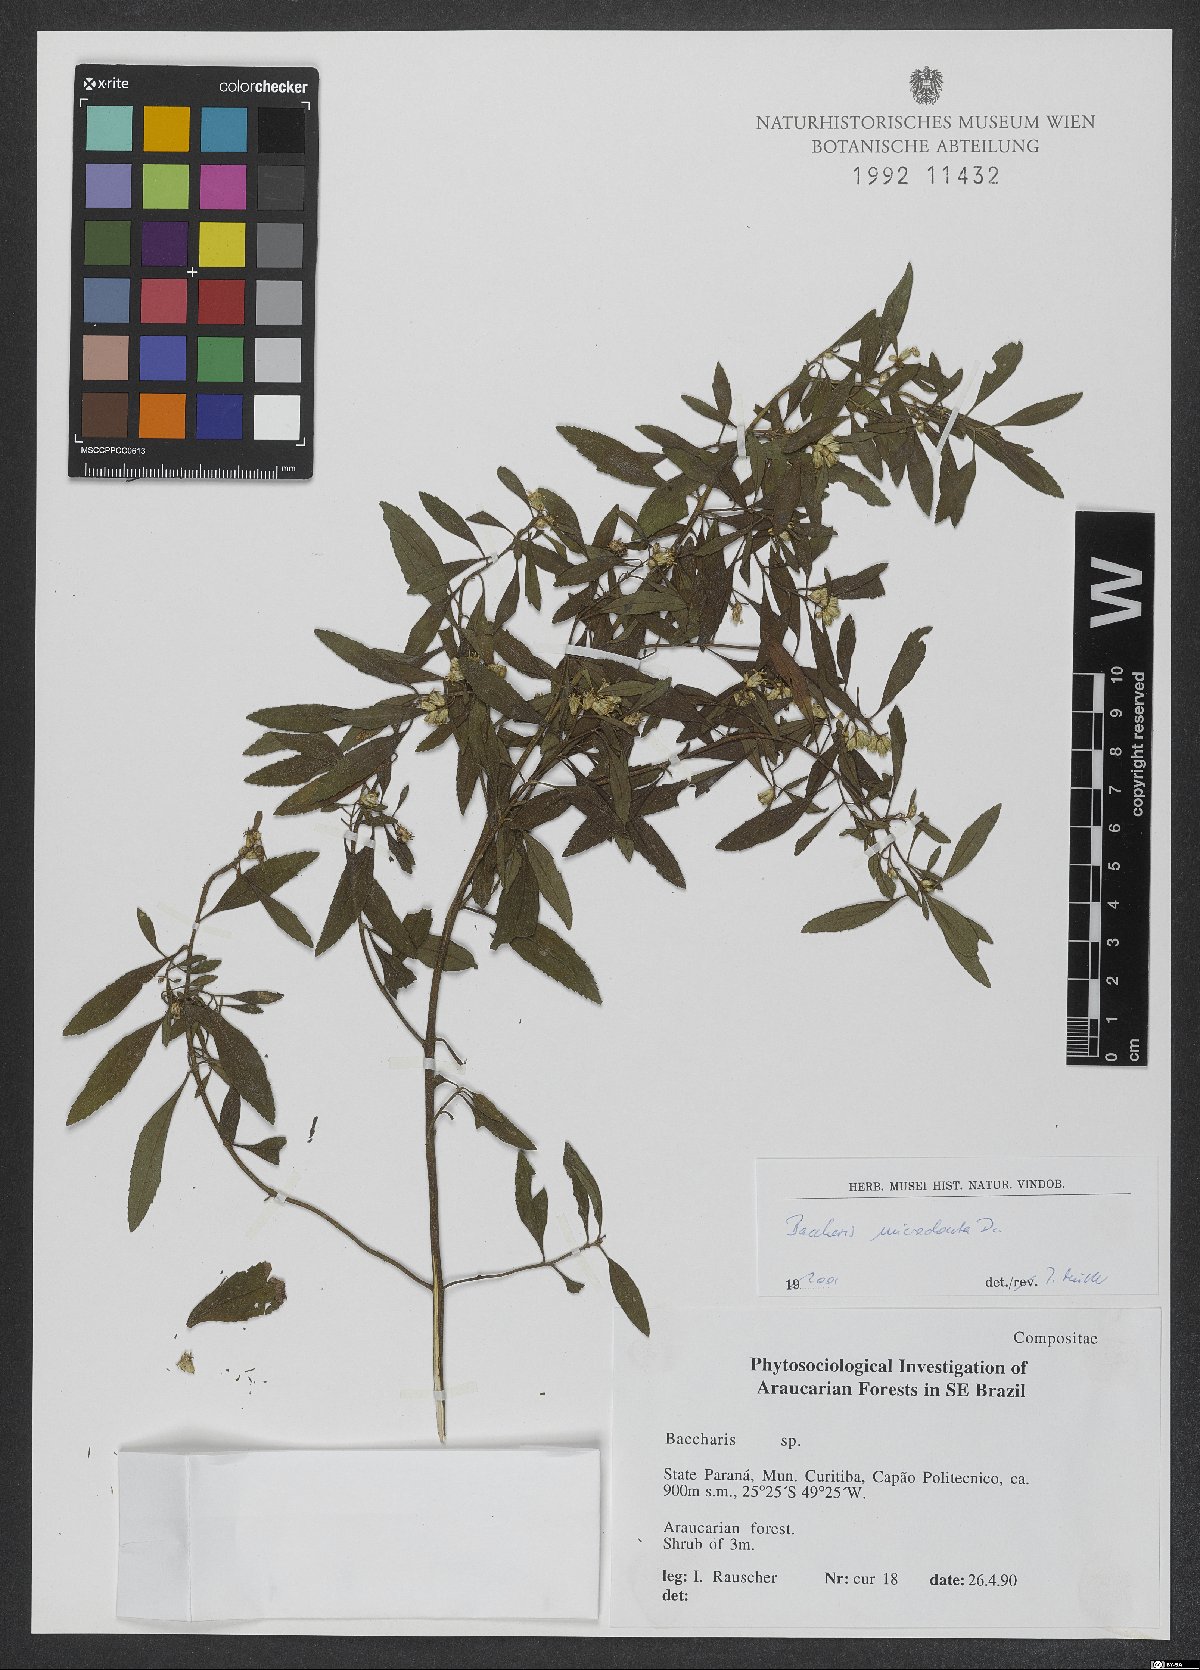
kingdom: Plantae
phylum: Tracheophyta
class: Magnoliopsida
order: Asterales
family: Asteraceae
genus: Baccharis
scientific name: Baccharis microdonta
